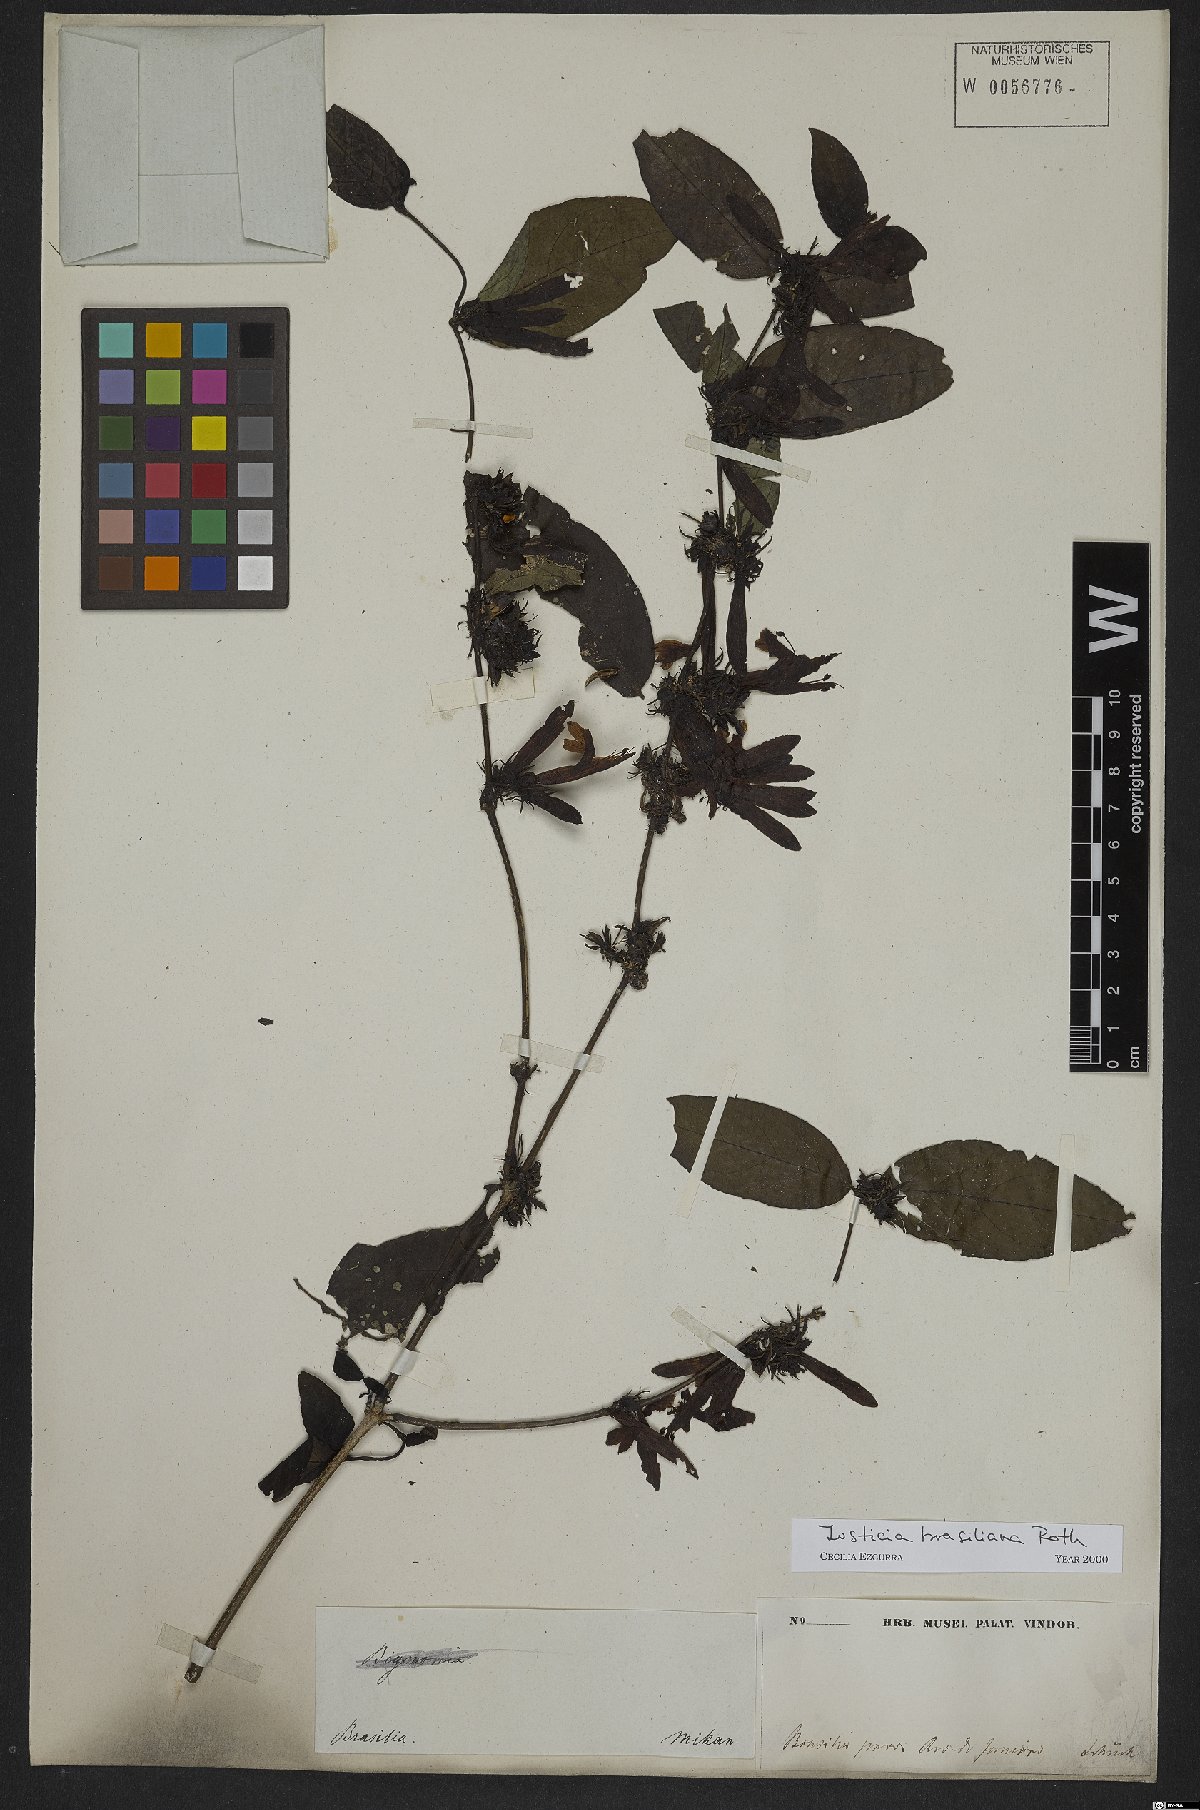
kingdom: Plantae
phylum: Tracheophyta
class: Magnoliopsida
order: Lamiales
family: Acanthaceae
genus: Justicia
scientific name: Justicia brasiliana
